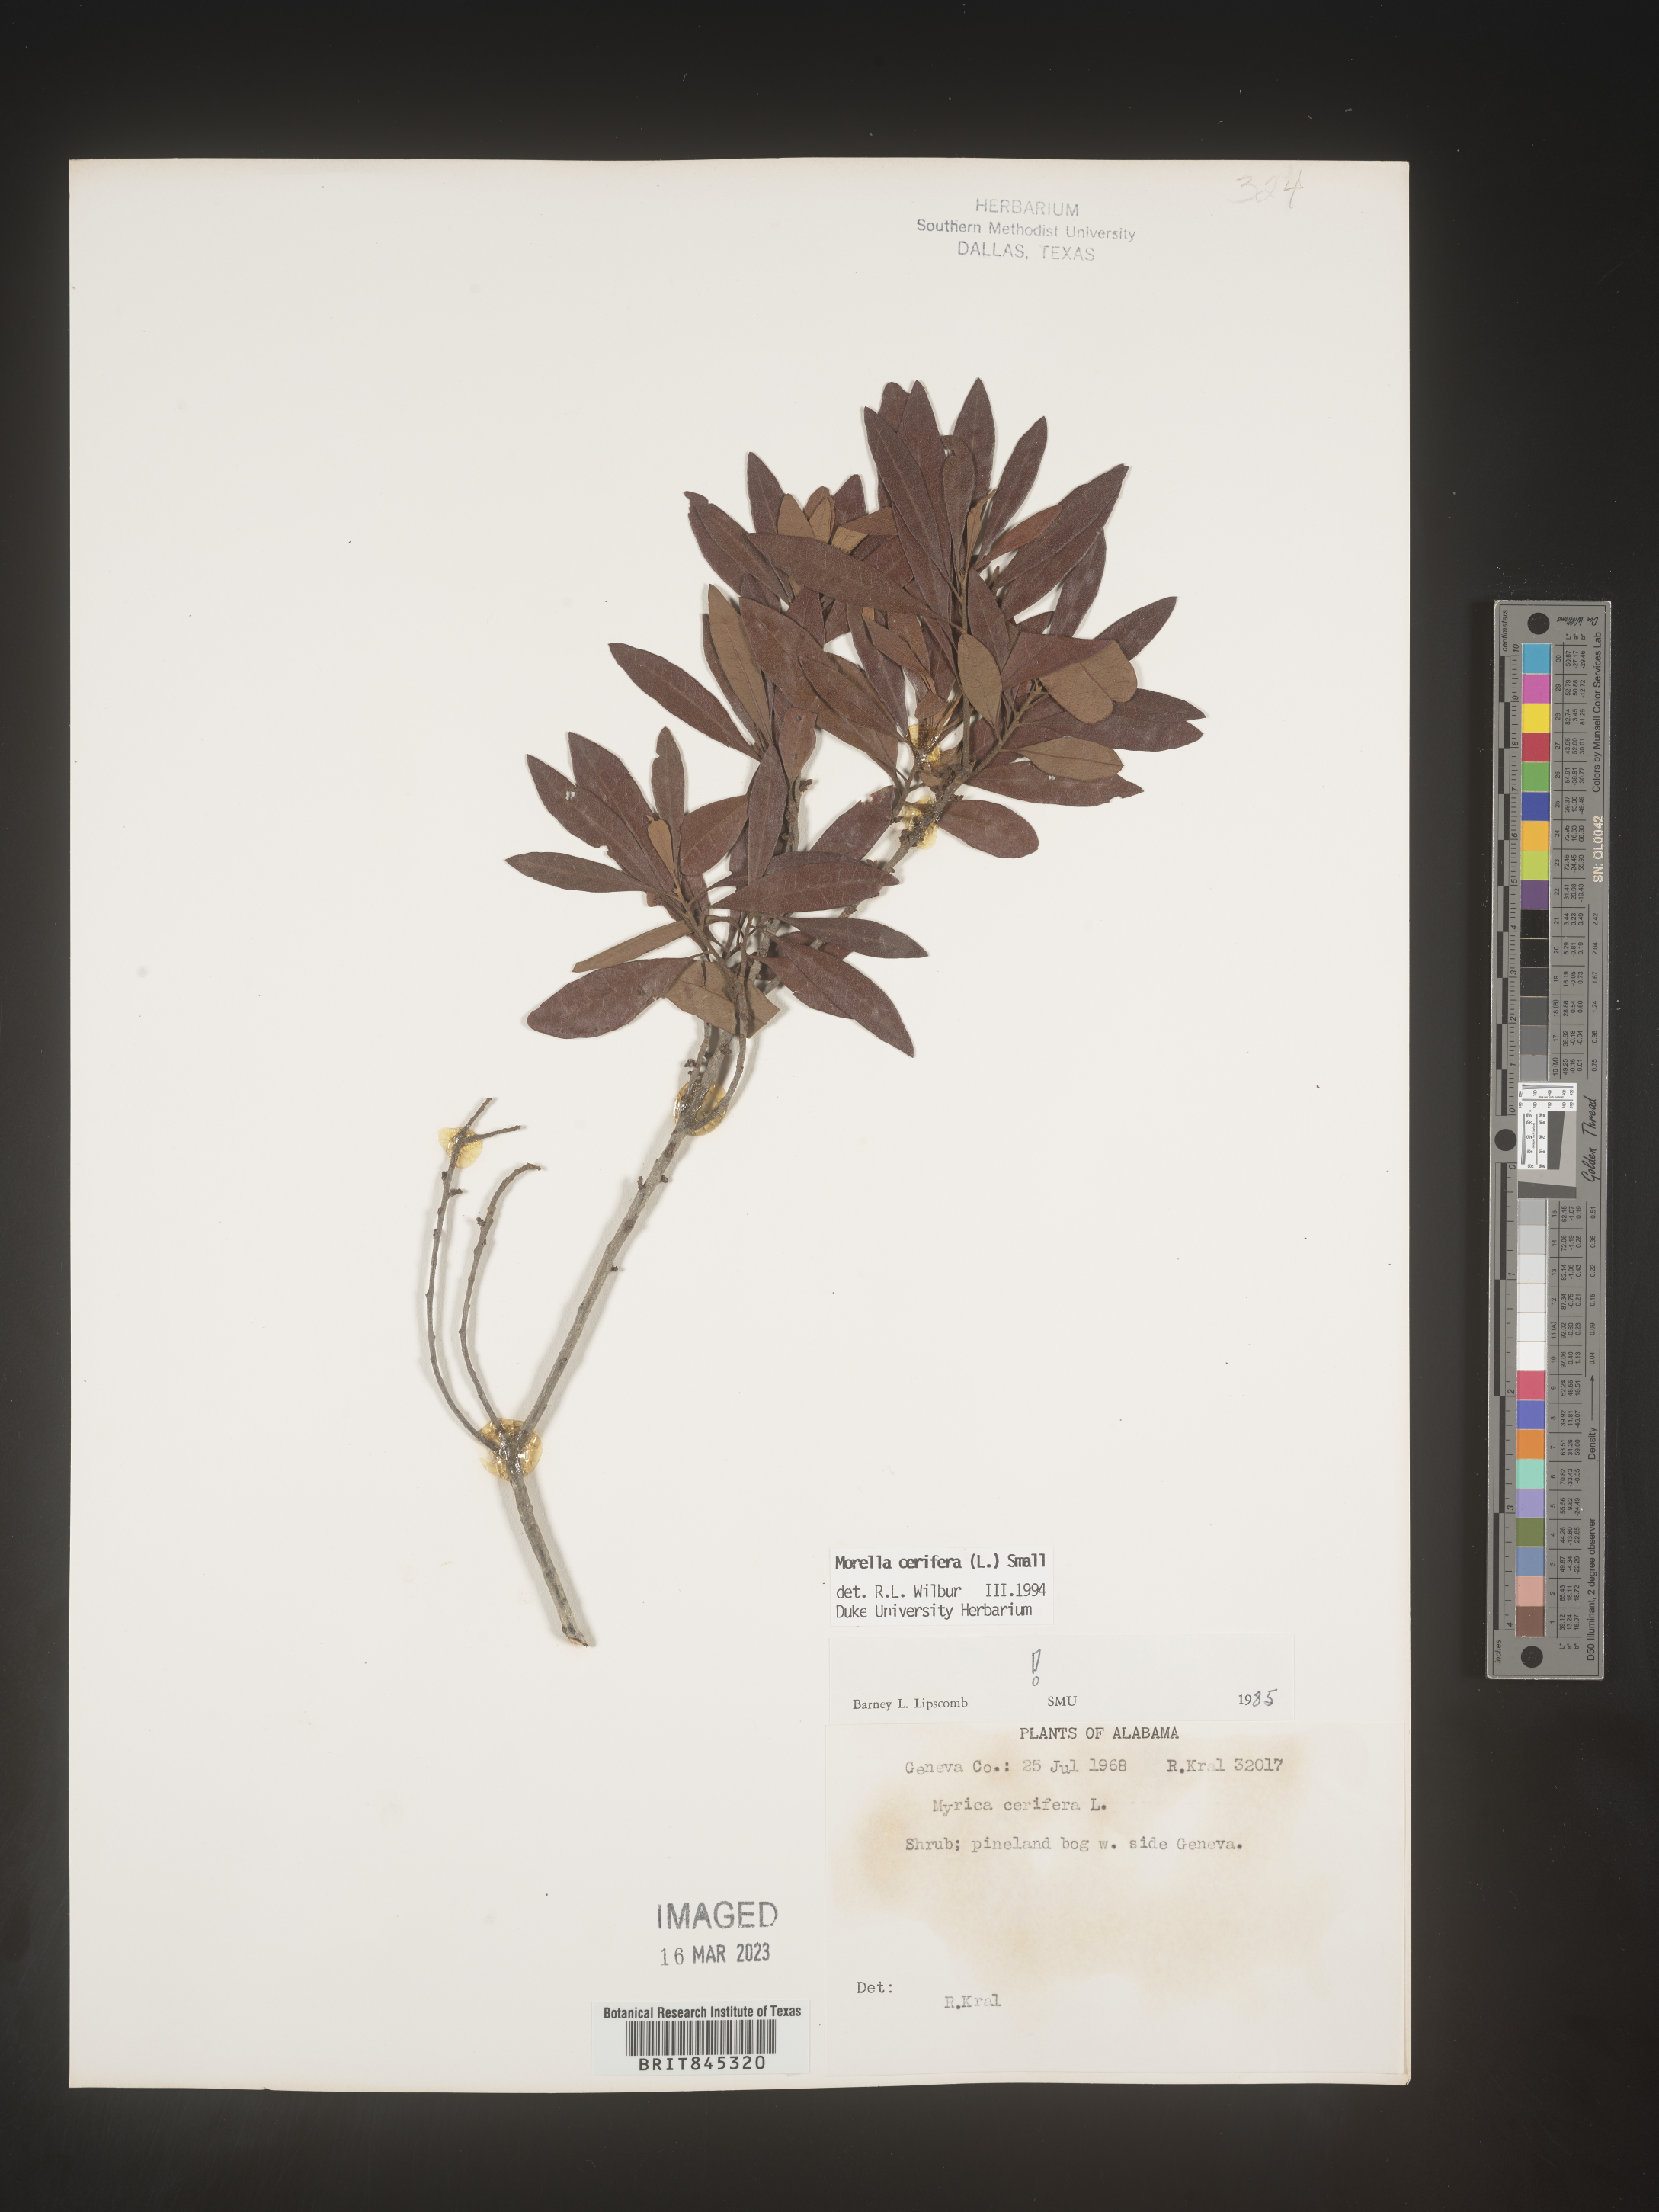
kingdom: Plantae
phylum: Tracheophyta
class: Magnoliopsida
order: Fagales
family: Myricaceae
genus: Morella
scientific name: Morella cerifera
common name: Wax myrtle
